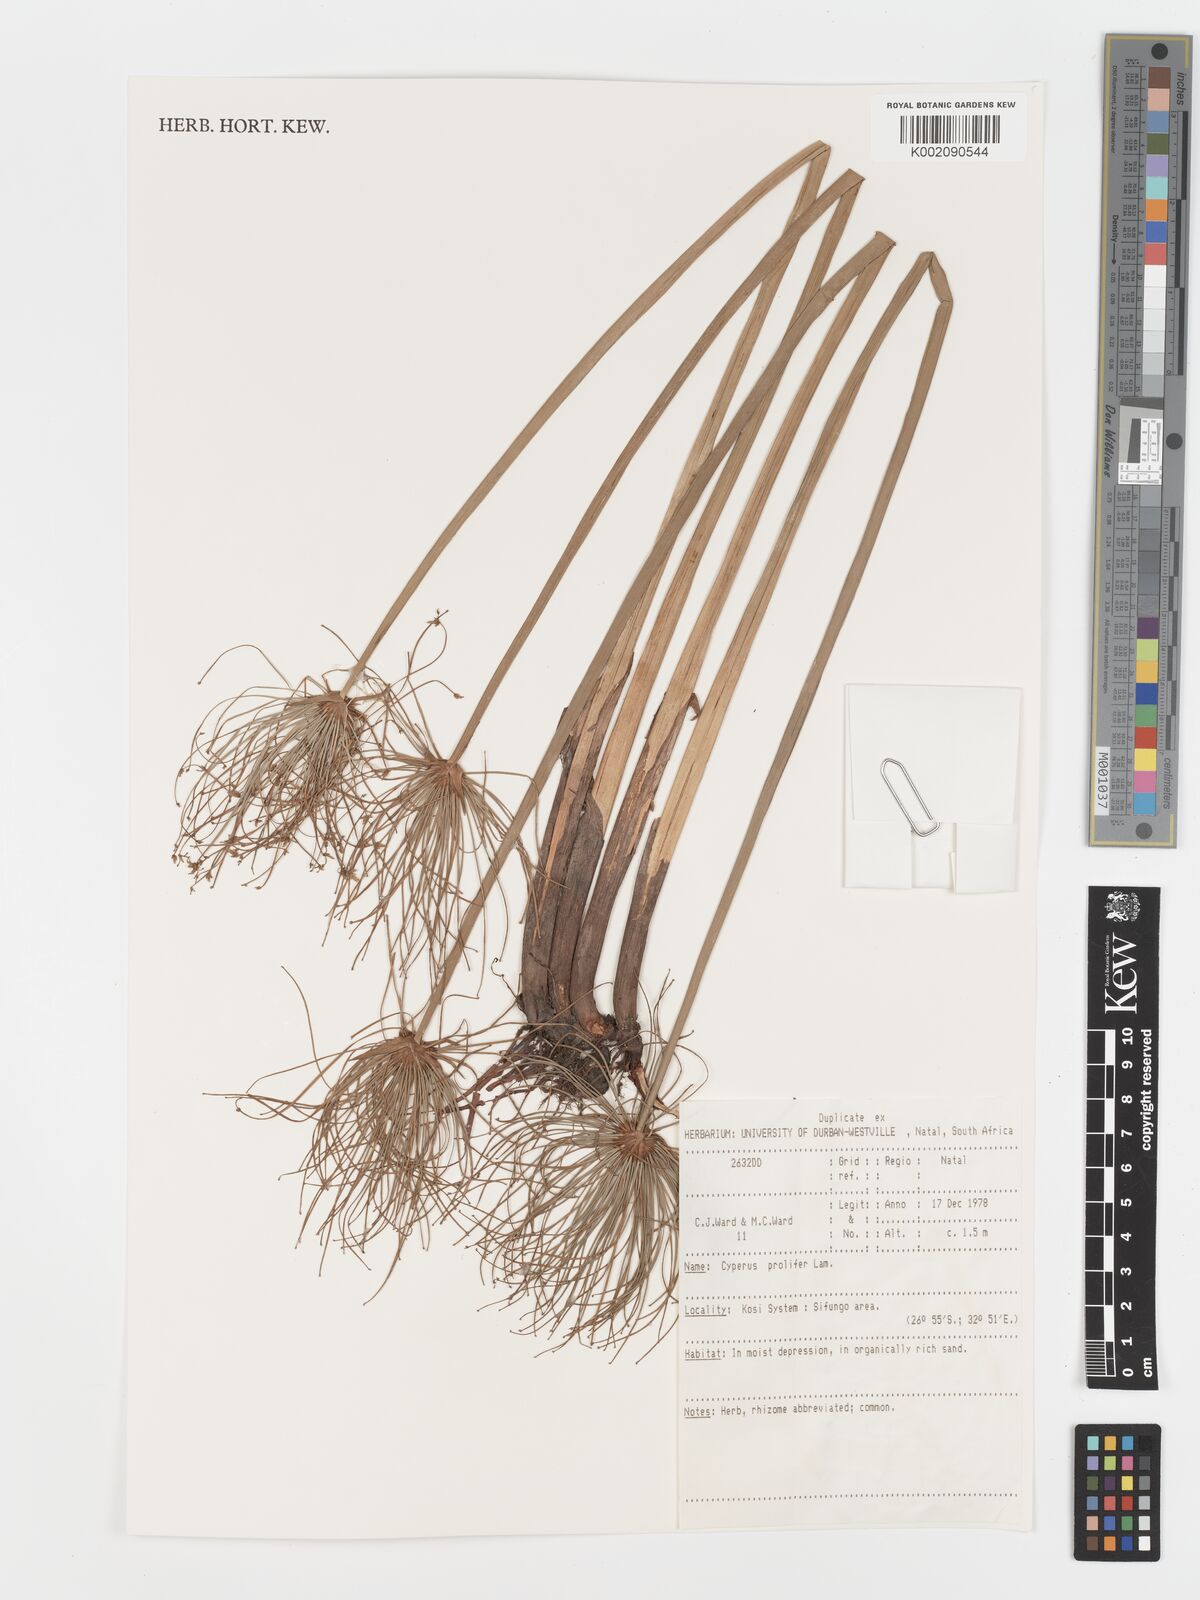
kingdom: Plantae
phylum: Tracheophyta
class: Liliopsida
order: Poales
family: Cyperaceae
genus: Cyperus
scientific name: Cyperus prolifer
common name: Miniature flatsedge
